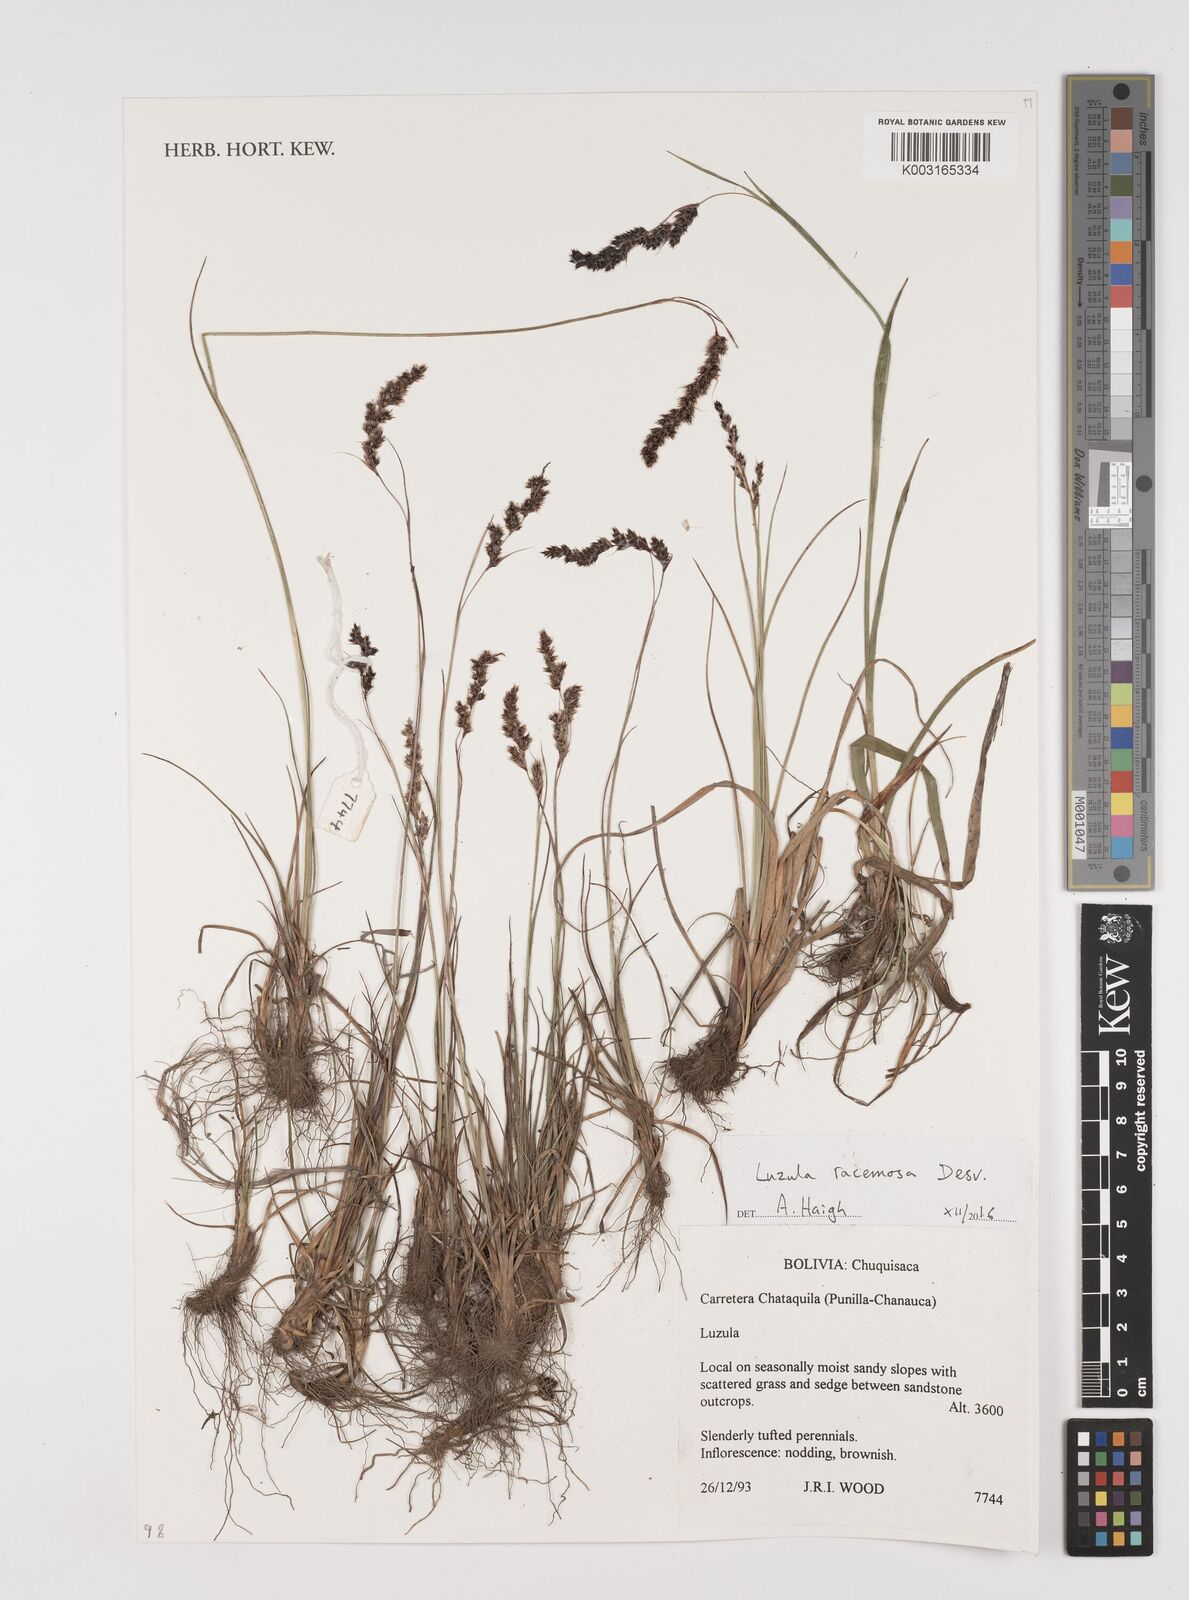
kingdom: Plantae
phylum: Tracheophyta
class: Liliopsida
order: Poales
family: Juncaceae
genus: Luzula
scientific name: Luzula racemosa
